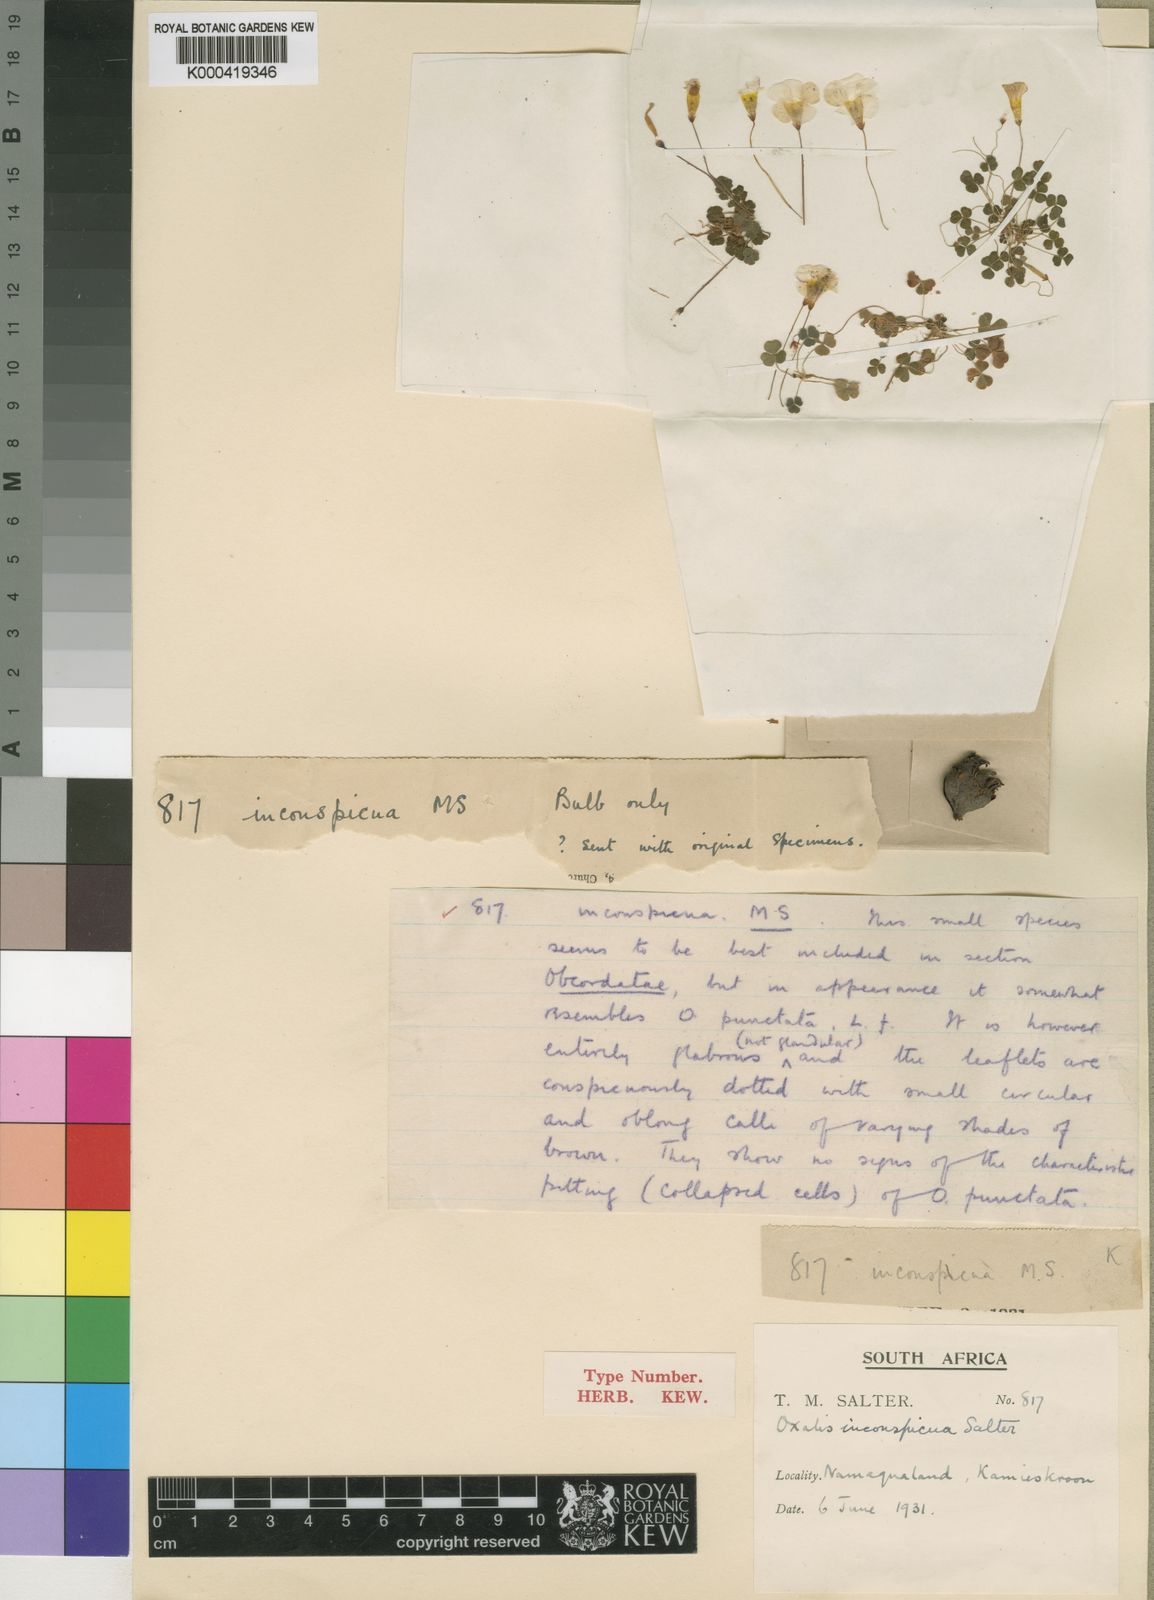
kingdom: Plantae
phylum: Tracheophyta
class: Magnoliopsida
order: Oxalidales
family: Oxalidaceae
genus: Oxalis
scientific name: Oxalis inconspicua
